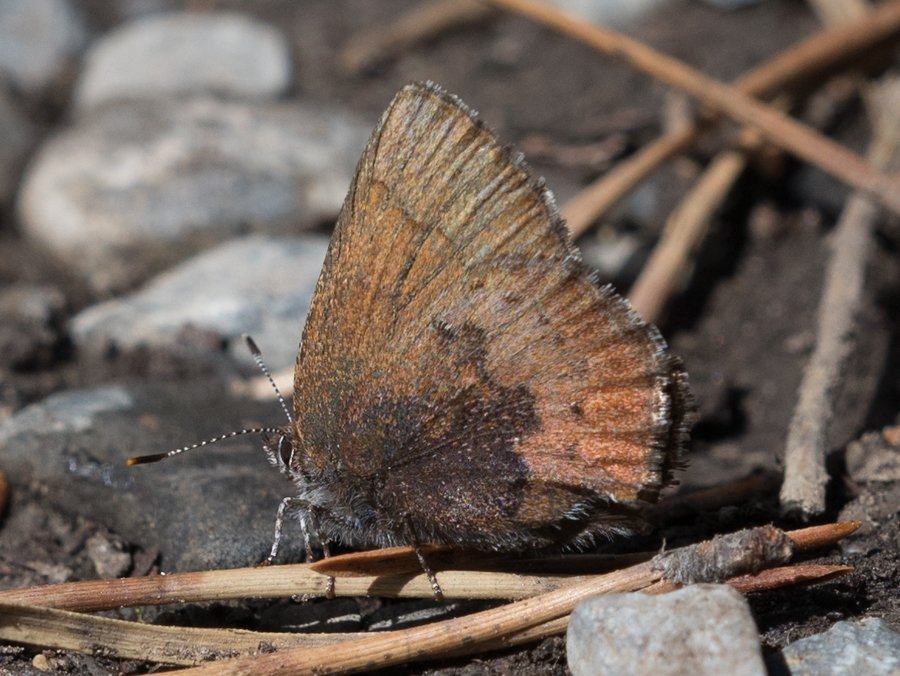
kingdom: Animalia
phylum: Arthropoda
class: Insecta
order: Lepidoptera
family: Lycaenidae
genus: Incisalia
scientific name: Incisalia irioides
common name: Brown Elfin
